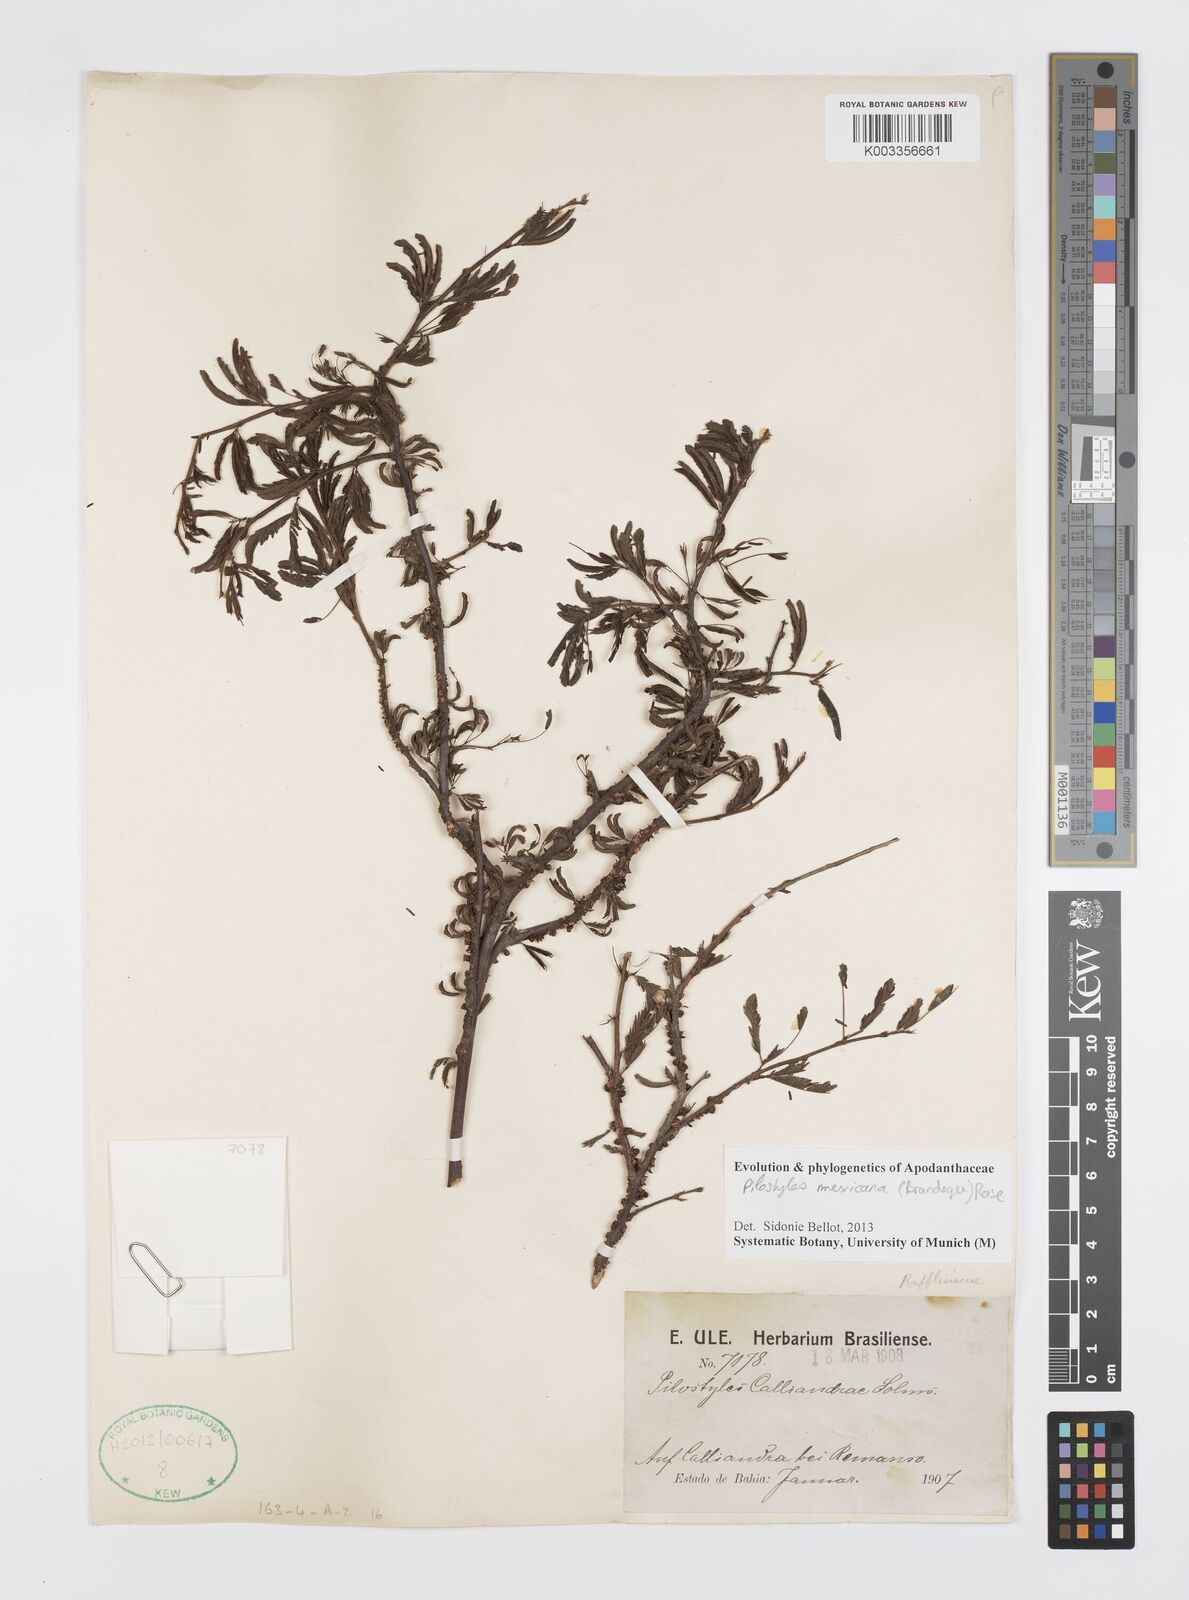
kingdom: Plantae
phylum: Tracheophyta
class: Magnoliopsida
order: Cucurbitales
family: Apodanthaceae
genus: Pilostyles
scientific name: Pilostyles mexicana
